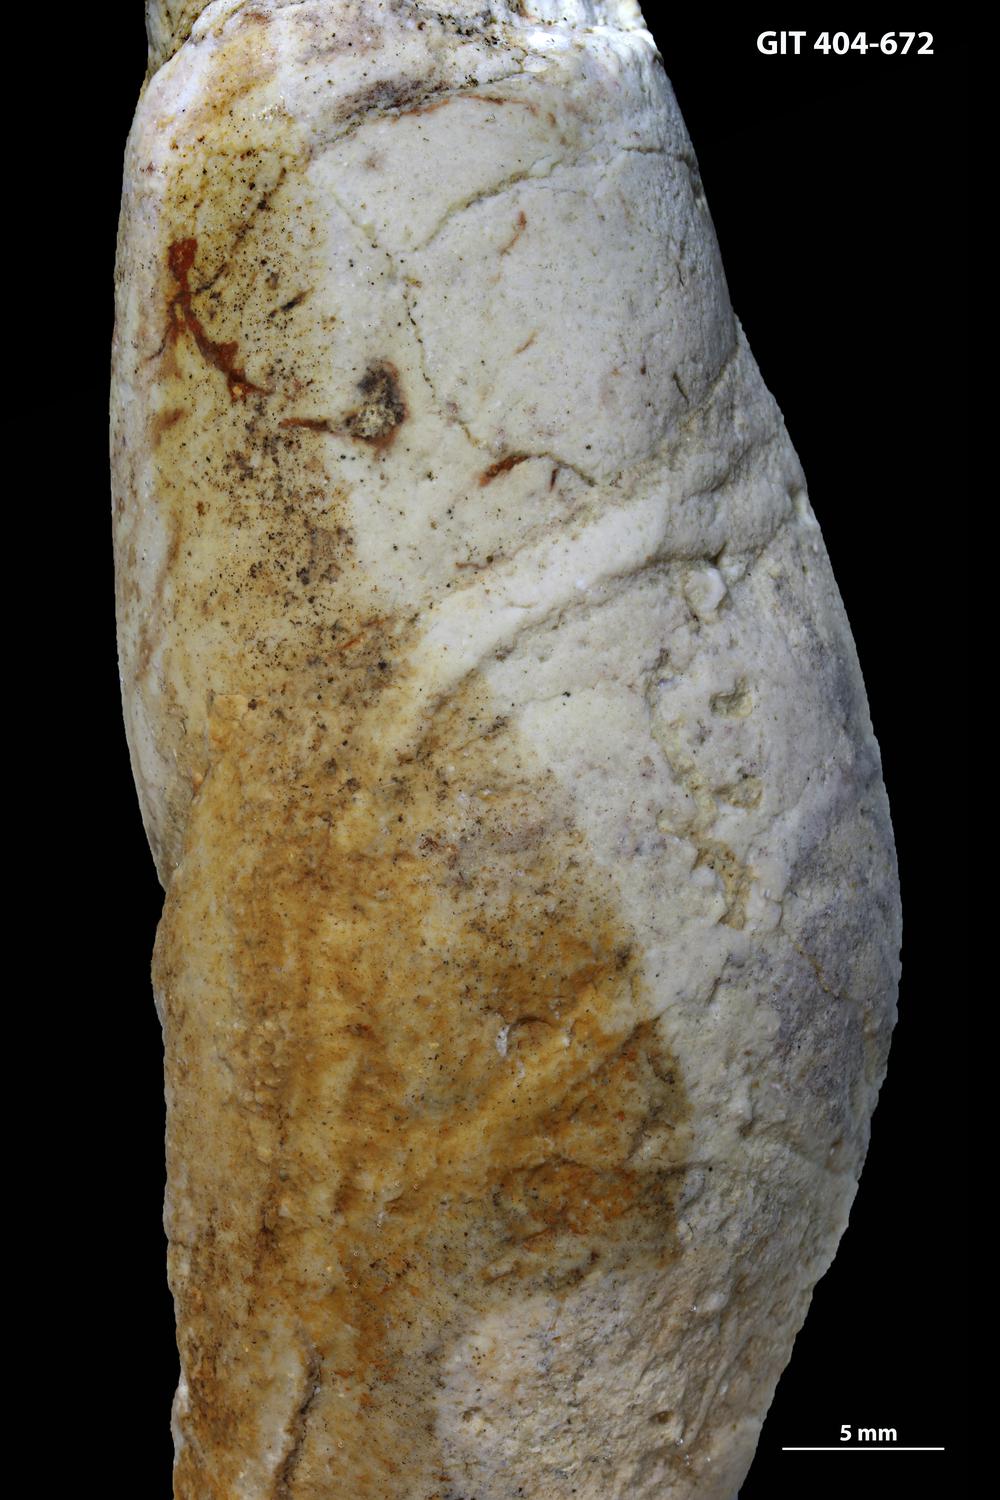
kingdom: Animalia
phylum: Mollusca
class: Gastropoda
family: Subulitidae
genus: Subulites
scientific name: Subulites subula
